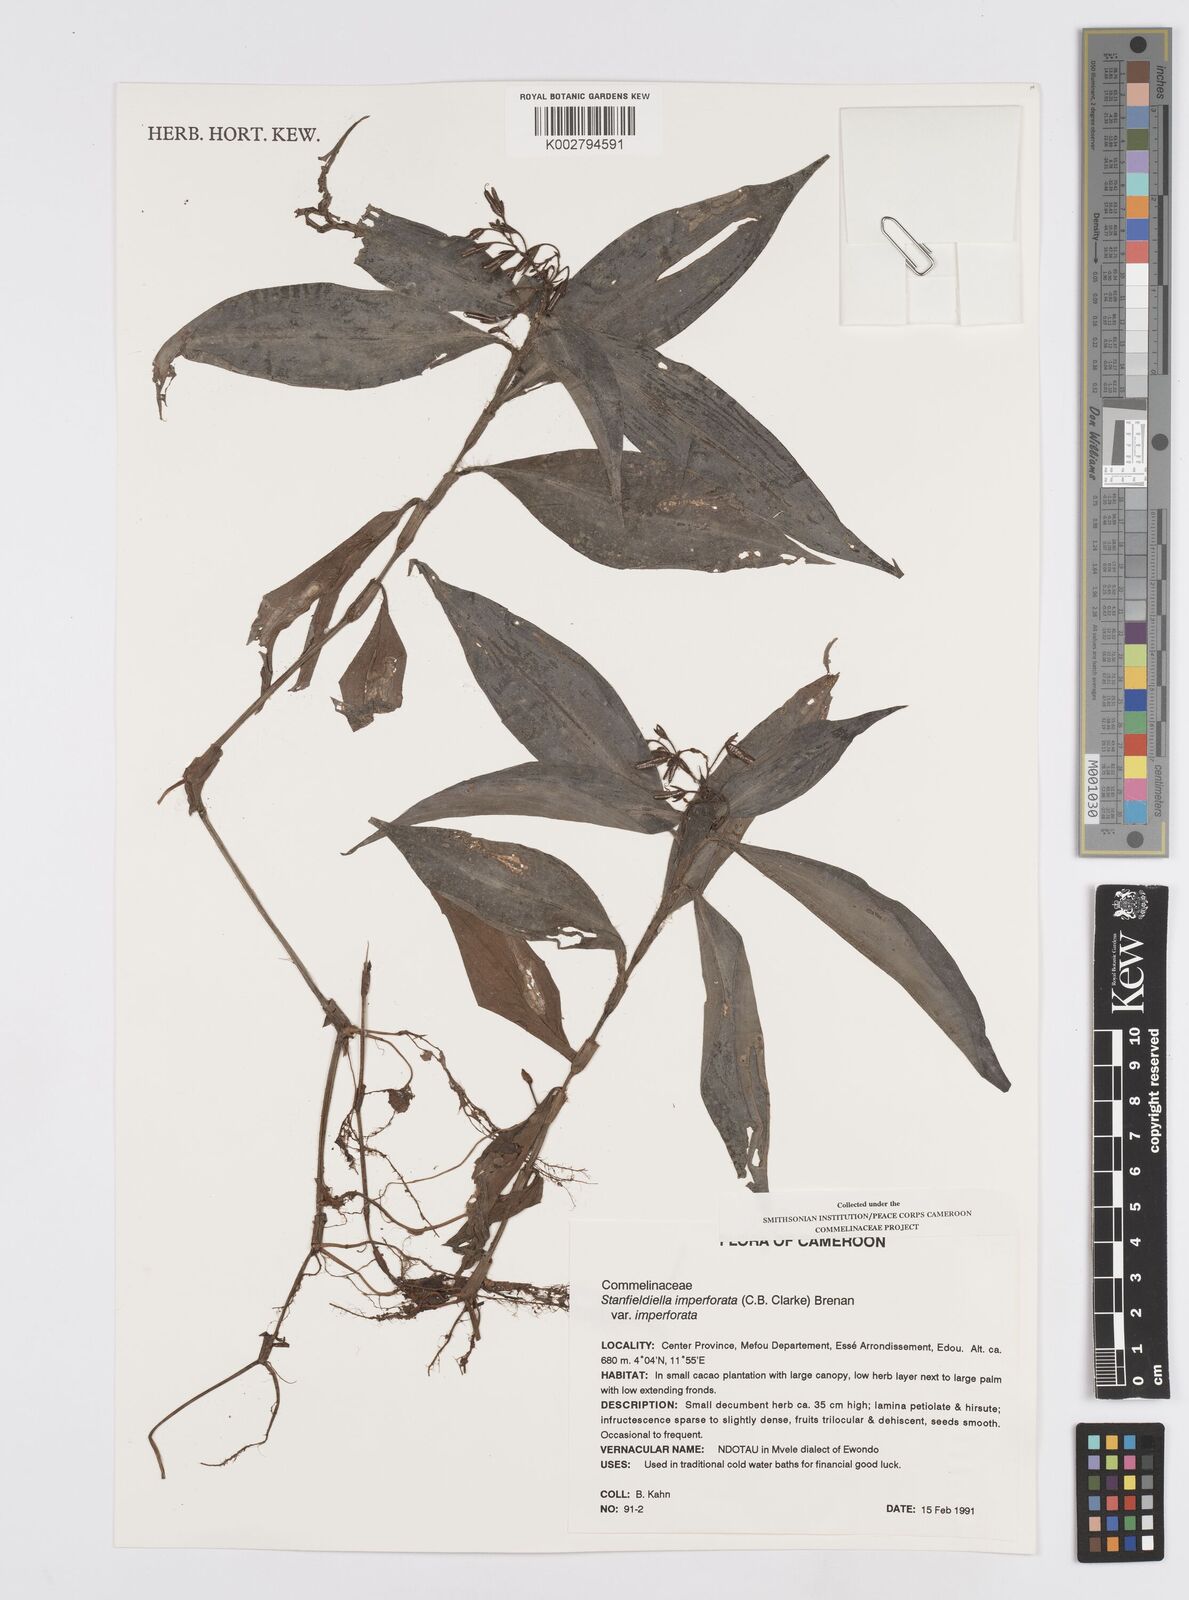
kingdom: Plantae
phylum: Tracheophyta
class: Liliopsida
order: Commelinales
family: Commelinaceae
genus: Stanfieldiella
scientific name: Stanfieldiella imperforata
